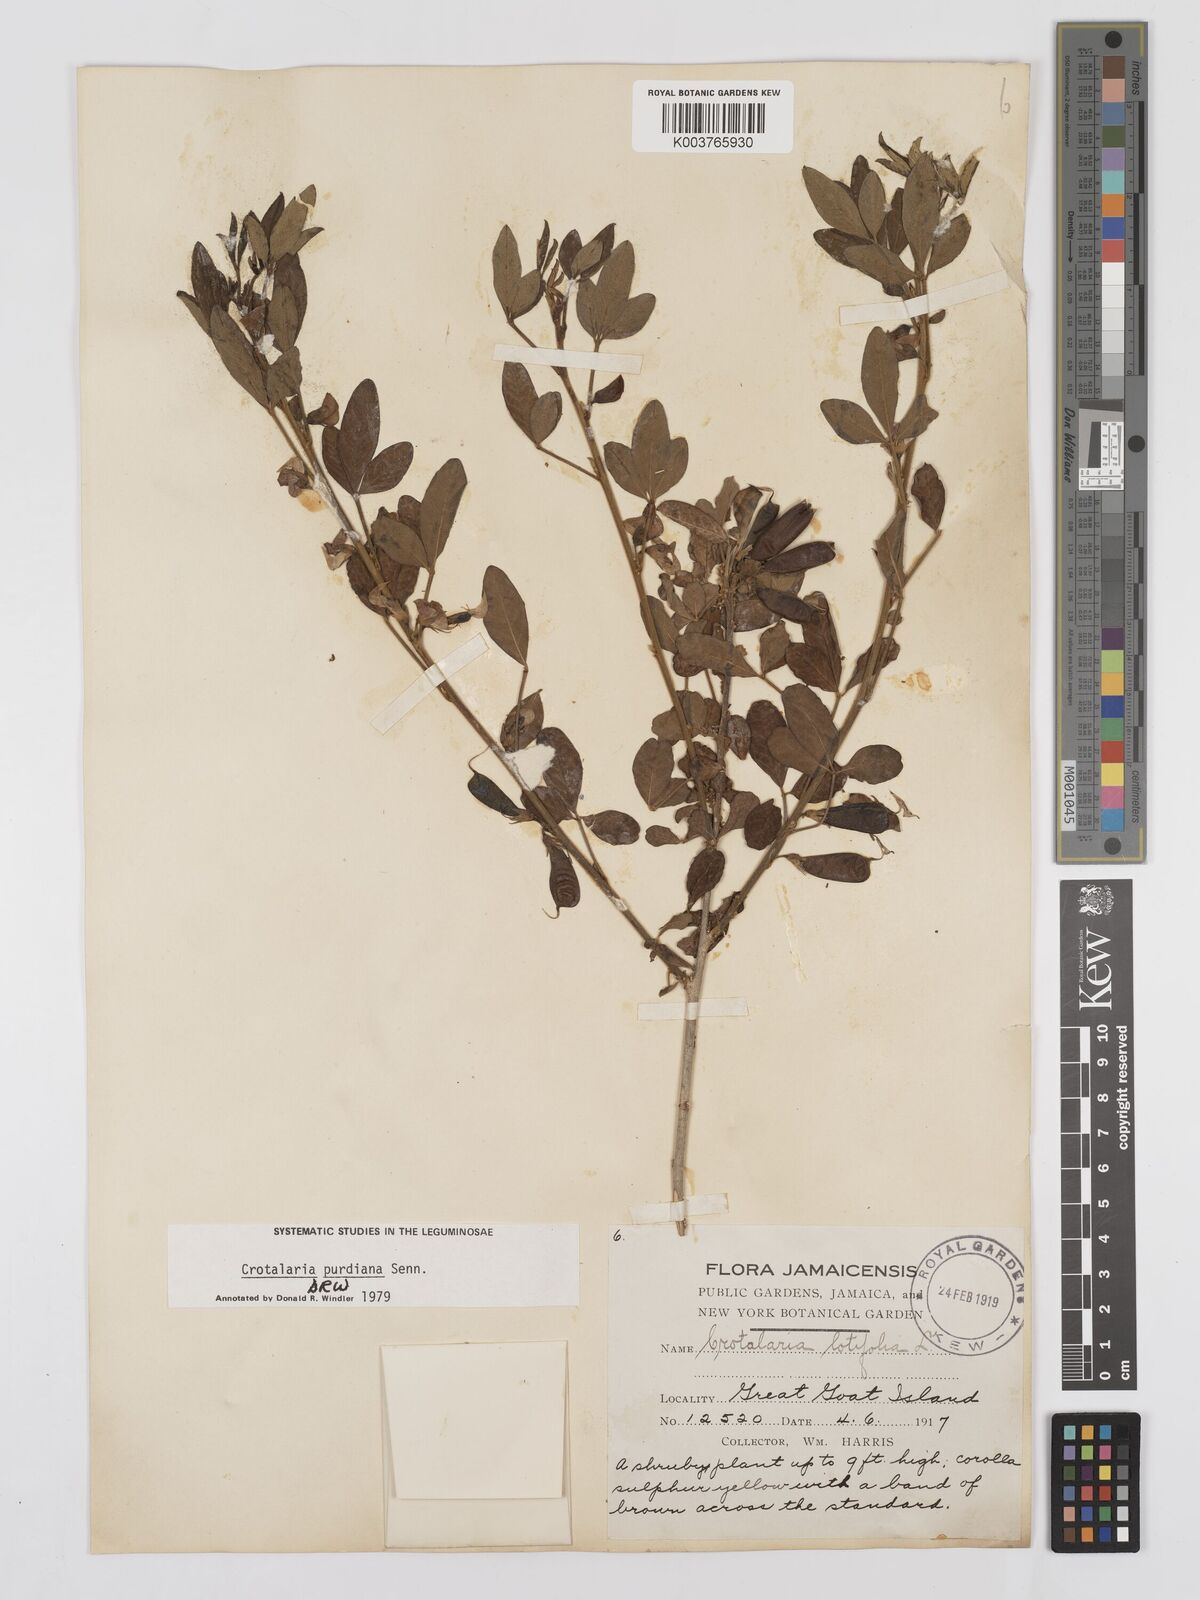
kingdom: Plantae
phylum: Tracheophyta
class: Magnoliopsida
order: Fabales
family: Fabaceae
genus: Crotalaria
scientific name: Crotalaria purdieana
